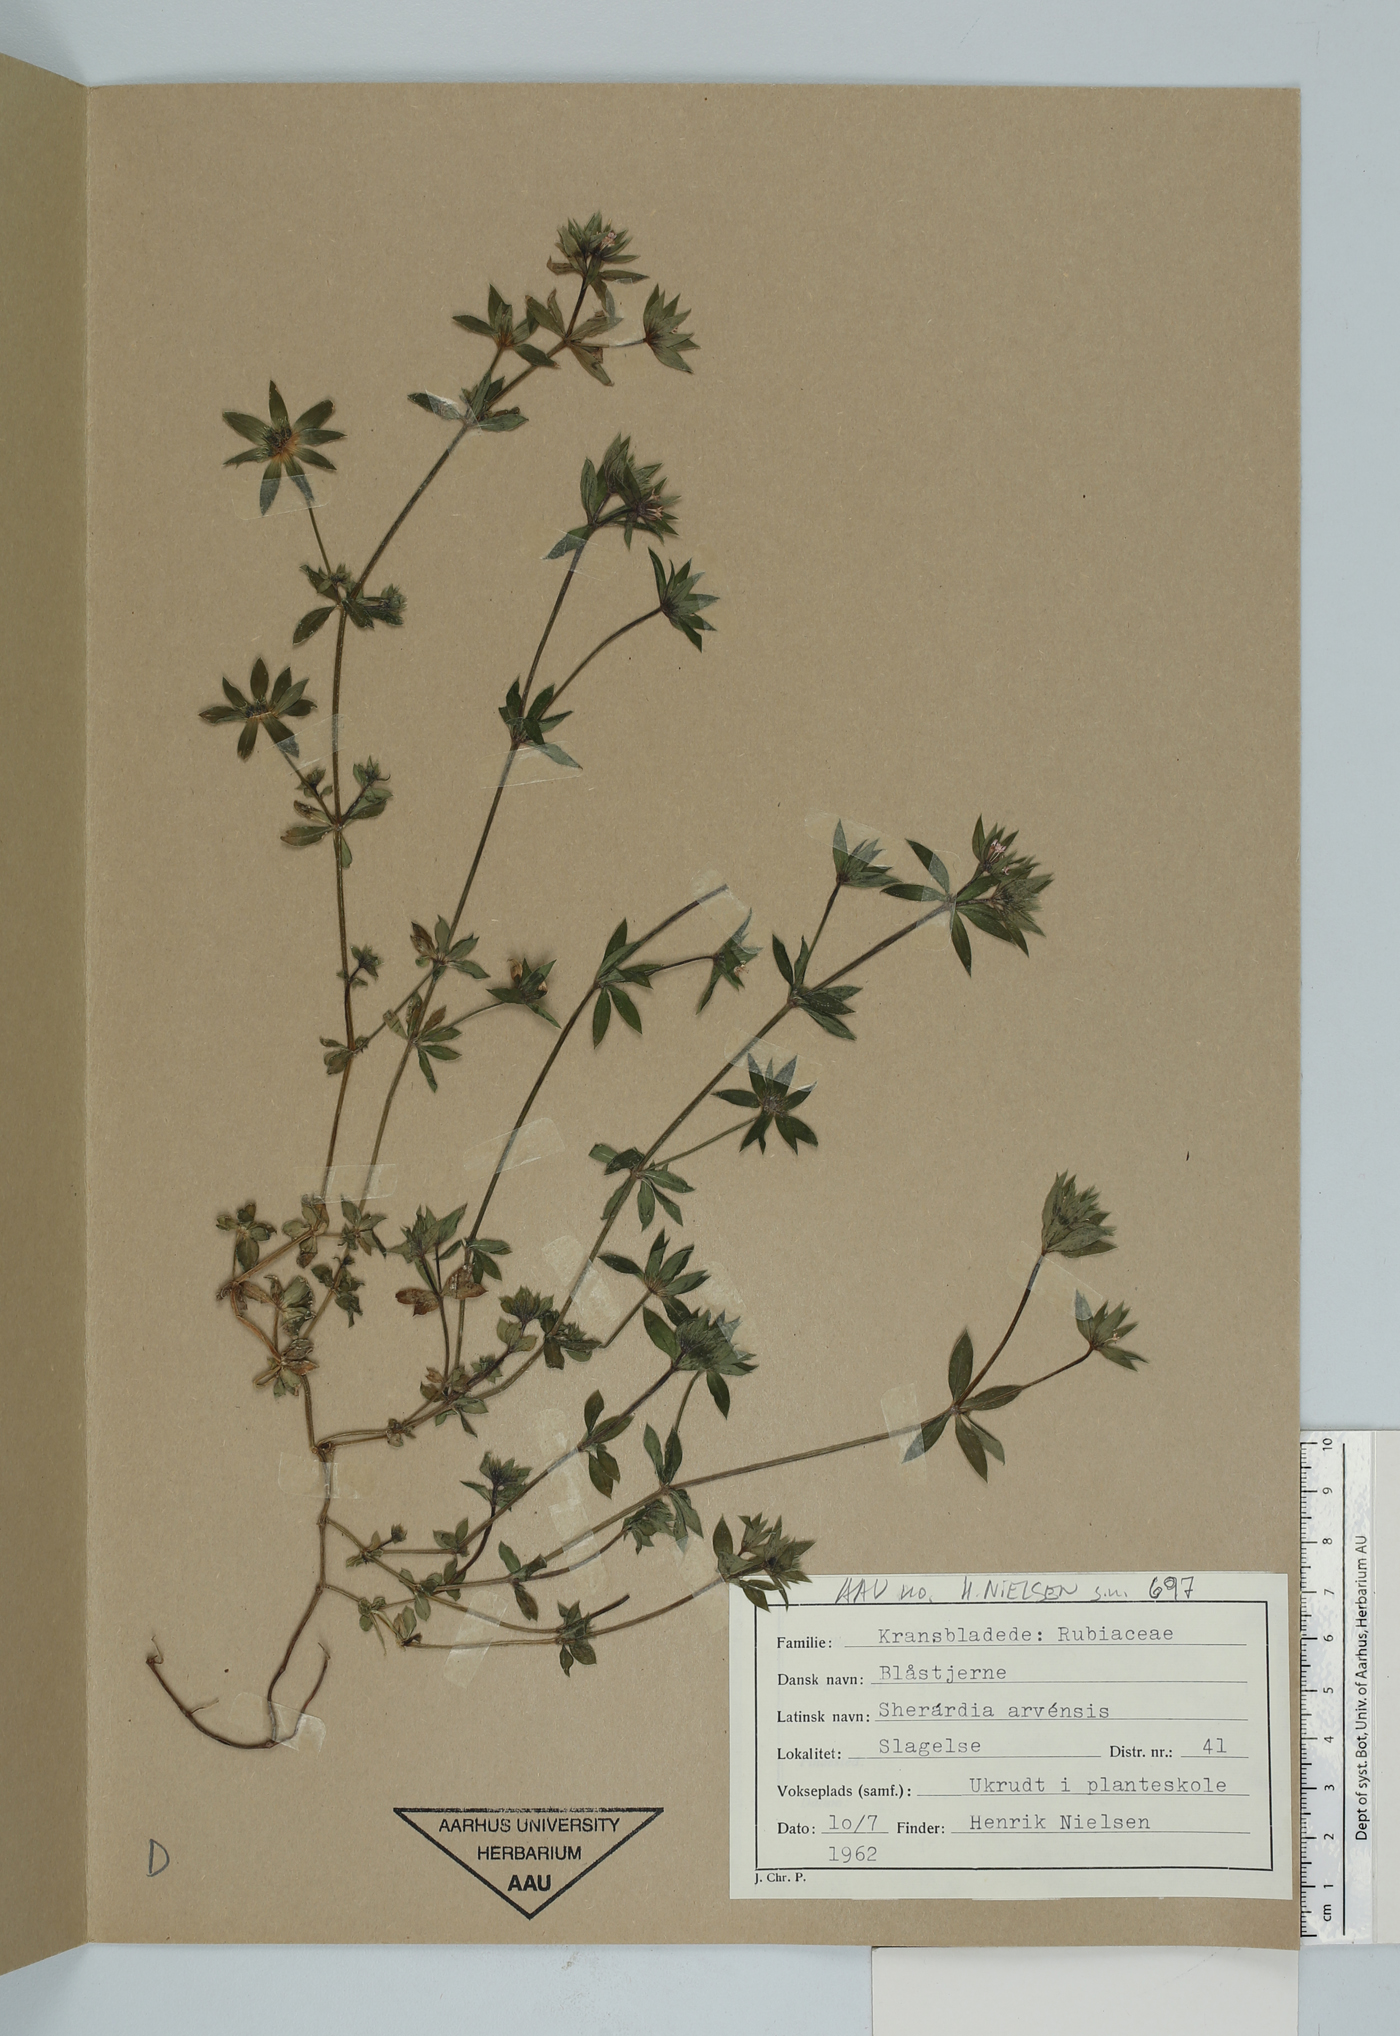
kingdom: Plantae
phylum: Tracheophyta
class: Magnoliopsida
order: Gentianales
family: Rubiaceae
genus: Sherardia
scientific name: Sherardia arvensis
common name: Field madder
